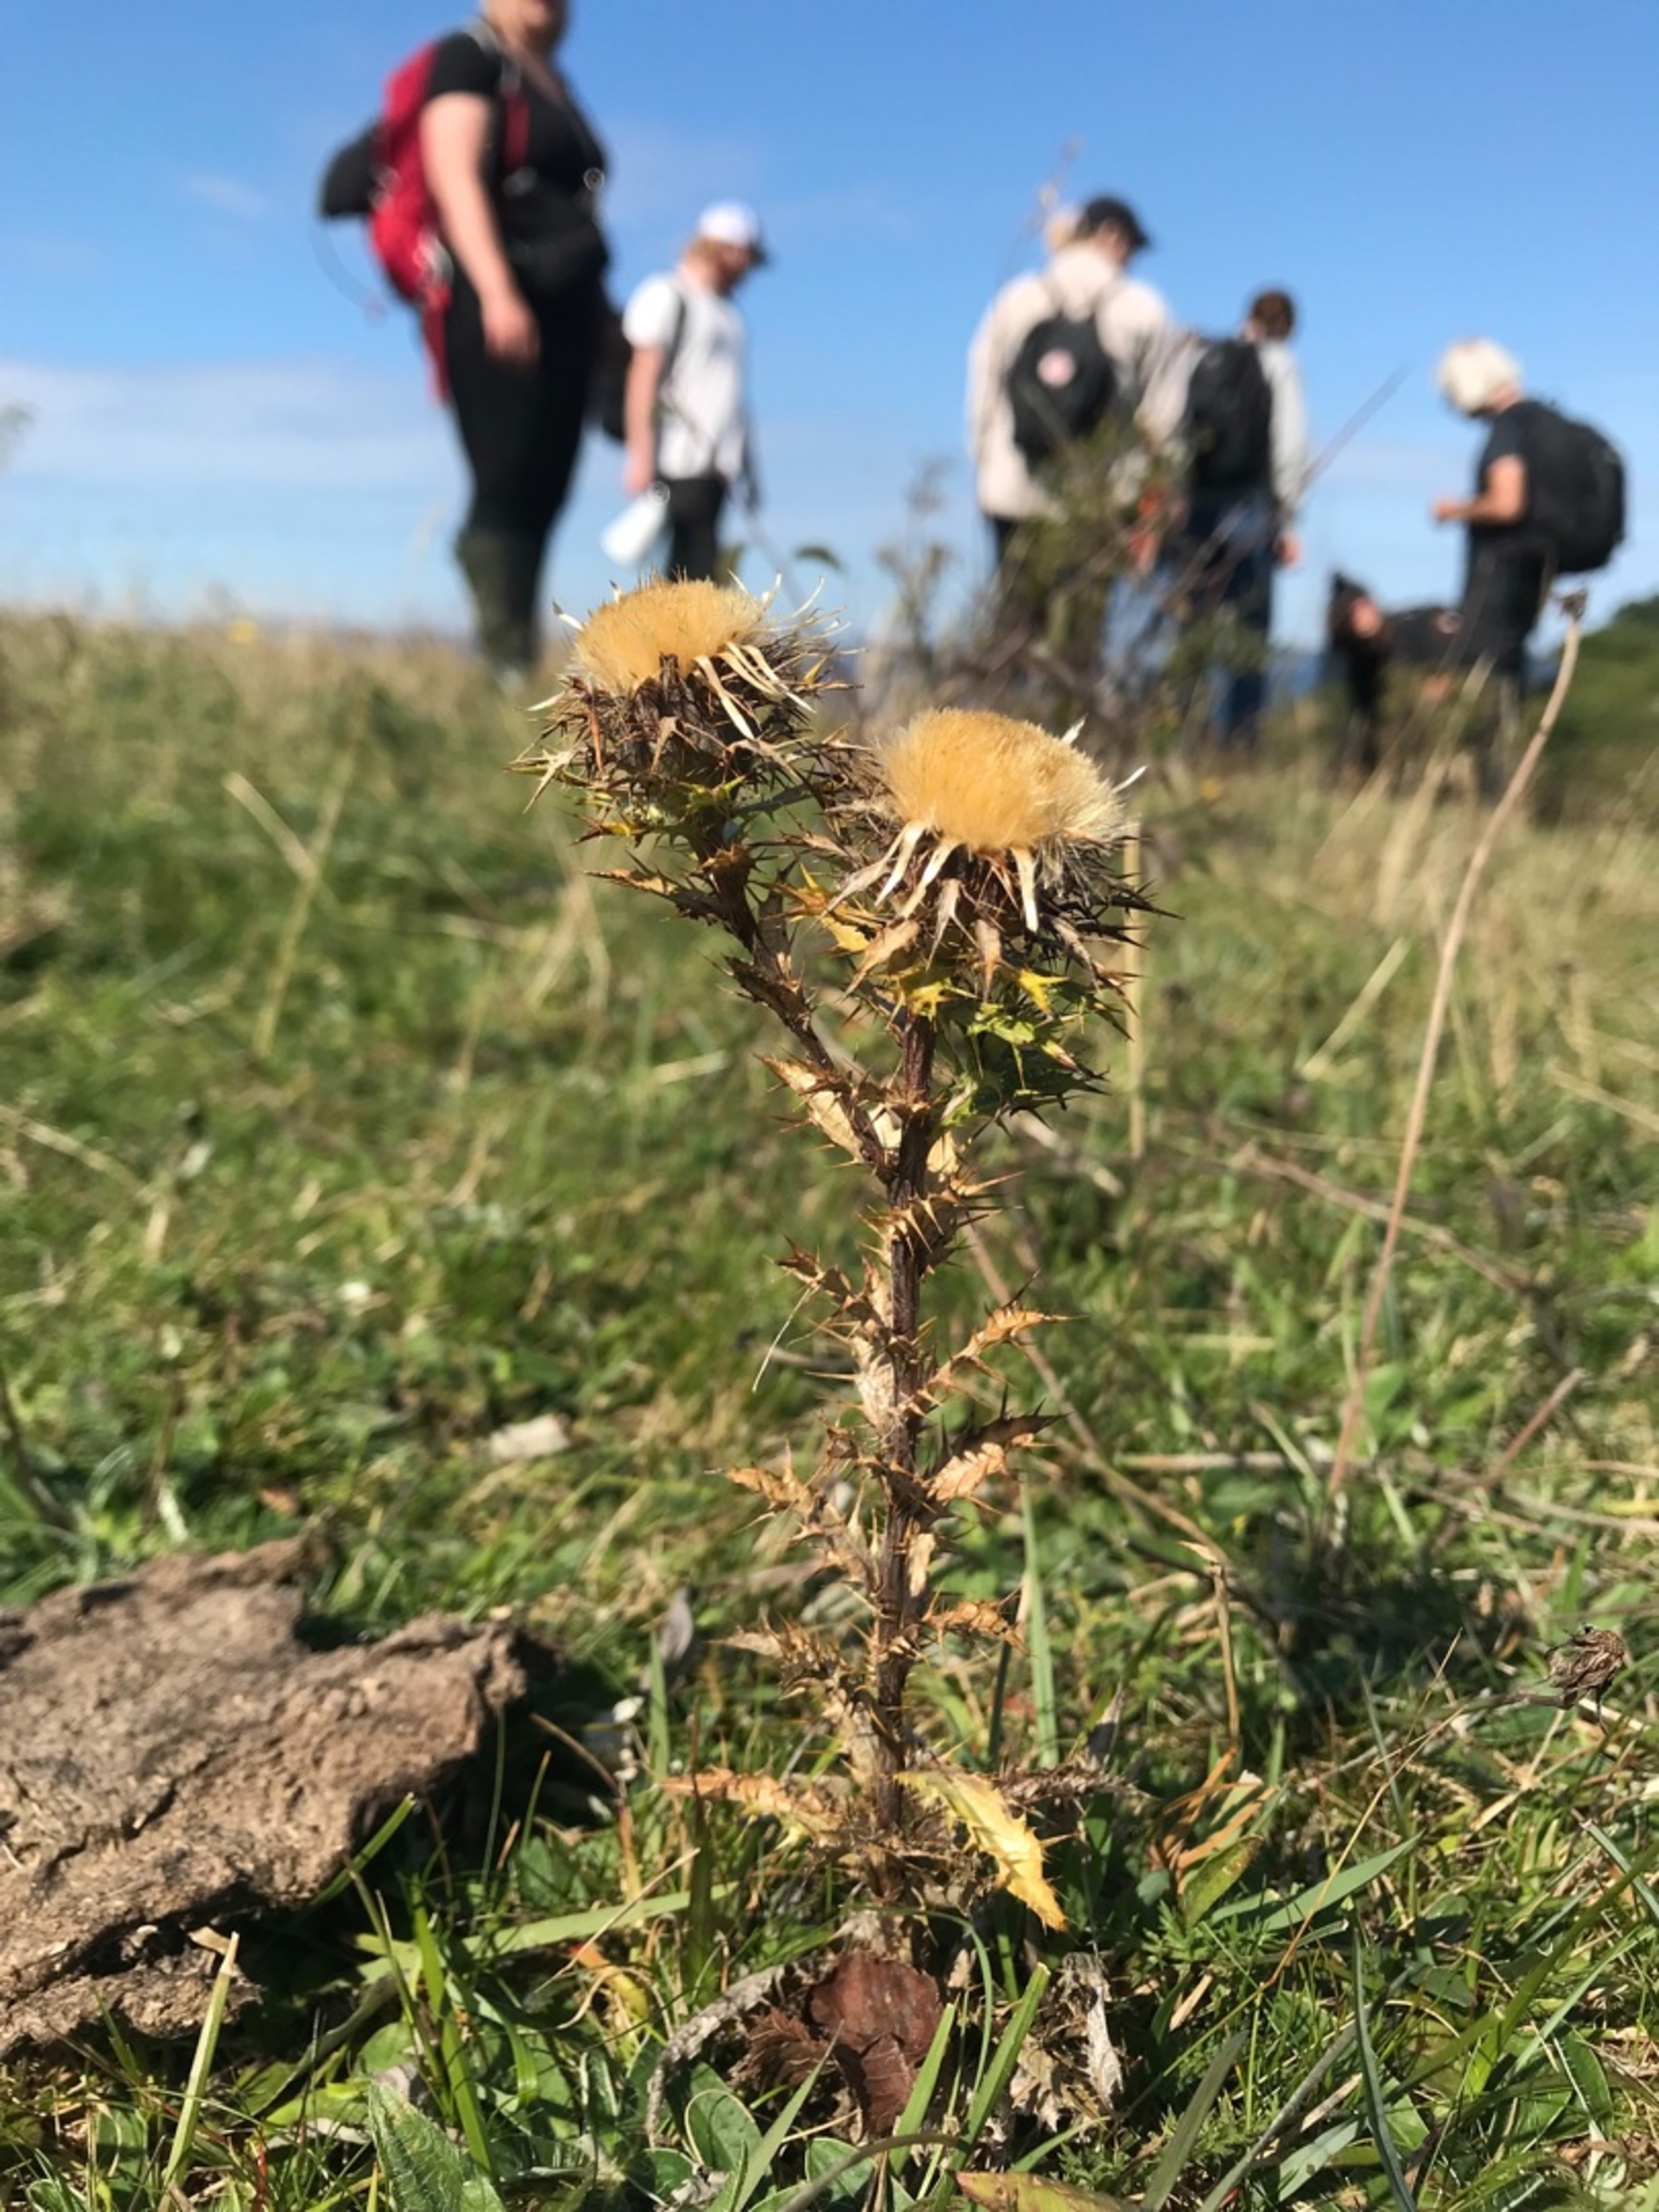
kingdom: Plantae
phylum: Tracheophyta
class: Magnoliopsida
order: Asterales
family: Asteraceae
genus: Carlina
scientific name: Carlina vulgaris
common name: Bakketidsel
